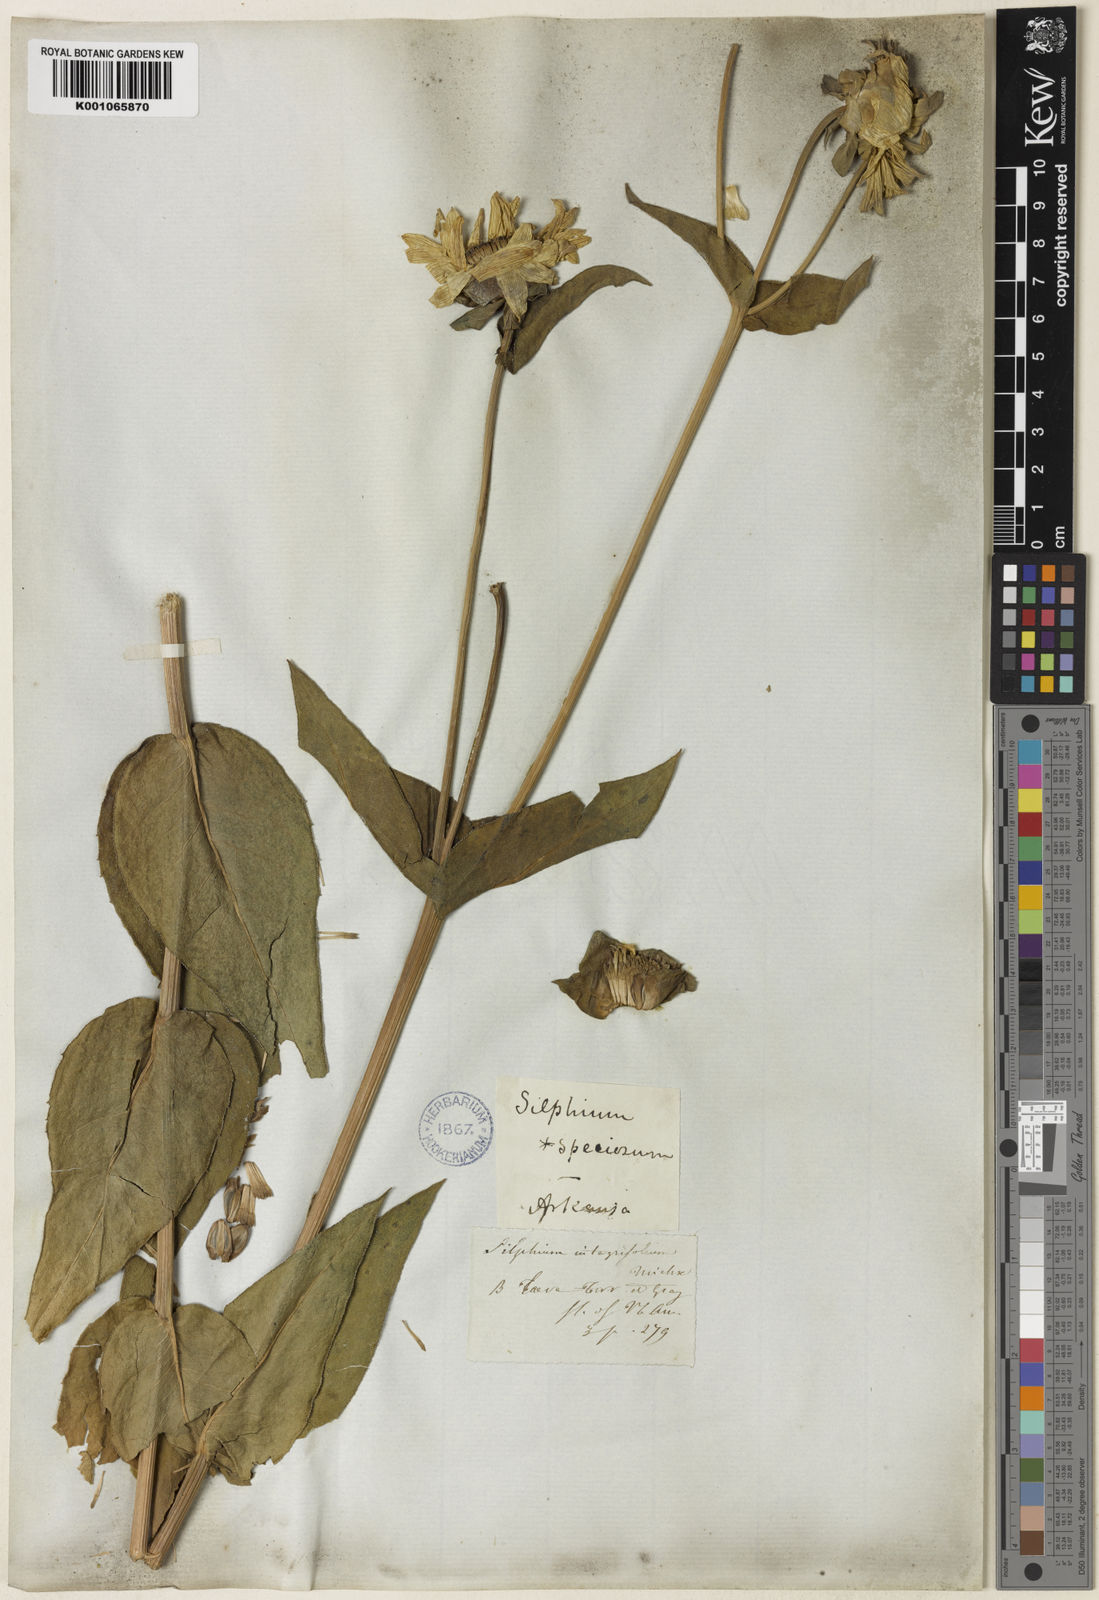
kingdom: Plantae
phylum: Tracheophyta
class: Magnoliopsida
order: Asterales
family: Asteraceae
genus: Silphium
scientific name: Silphium integrifolium
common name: Whole-leaf rosinweed
